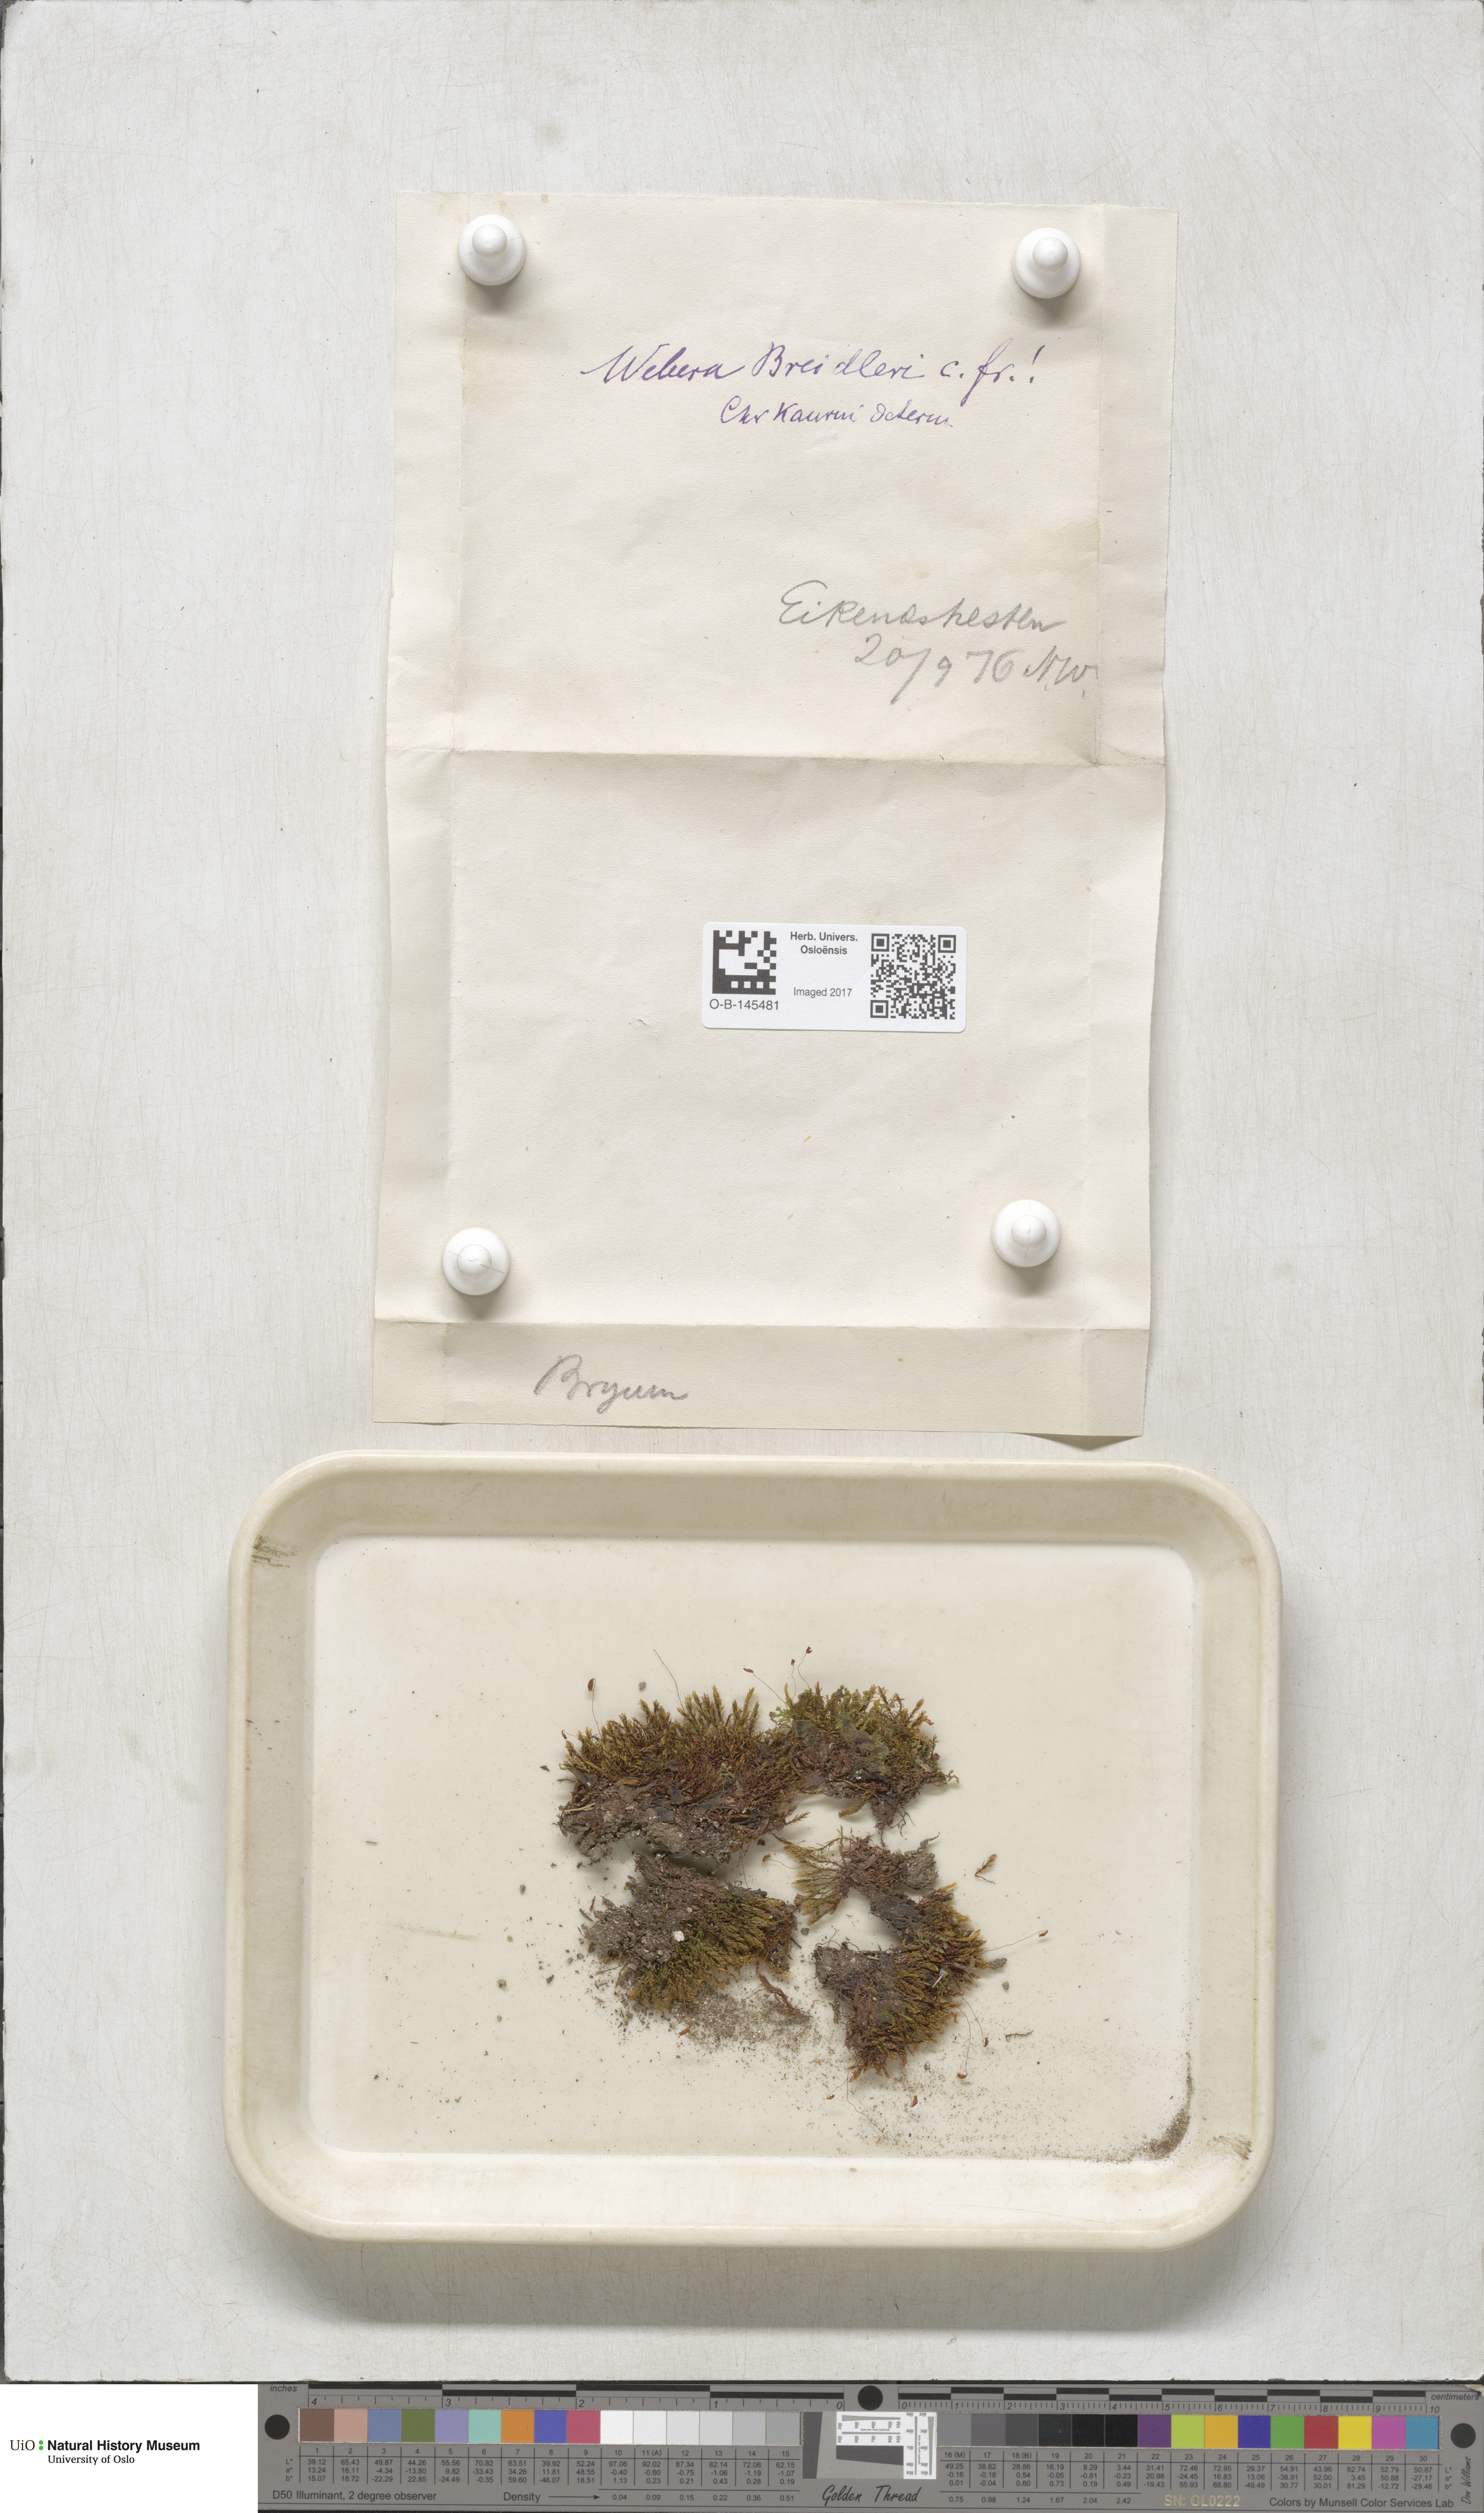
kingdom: Plantae
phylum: Bryophyta
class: Bryopsida
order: Bryales
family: Mniaceae
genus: Pohlia
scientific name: Pohlia ludwigii
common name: Ludwig's thread-moss
